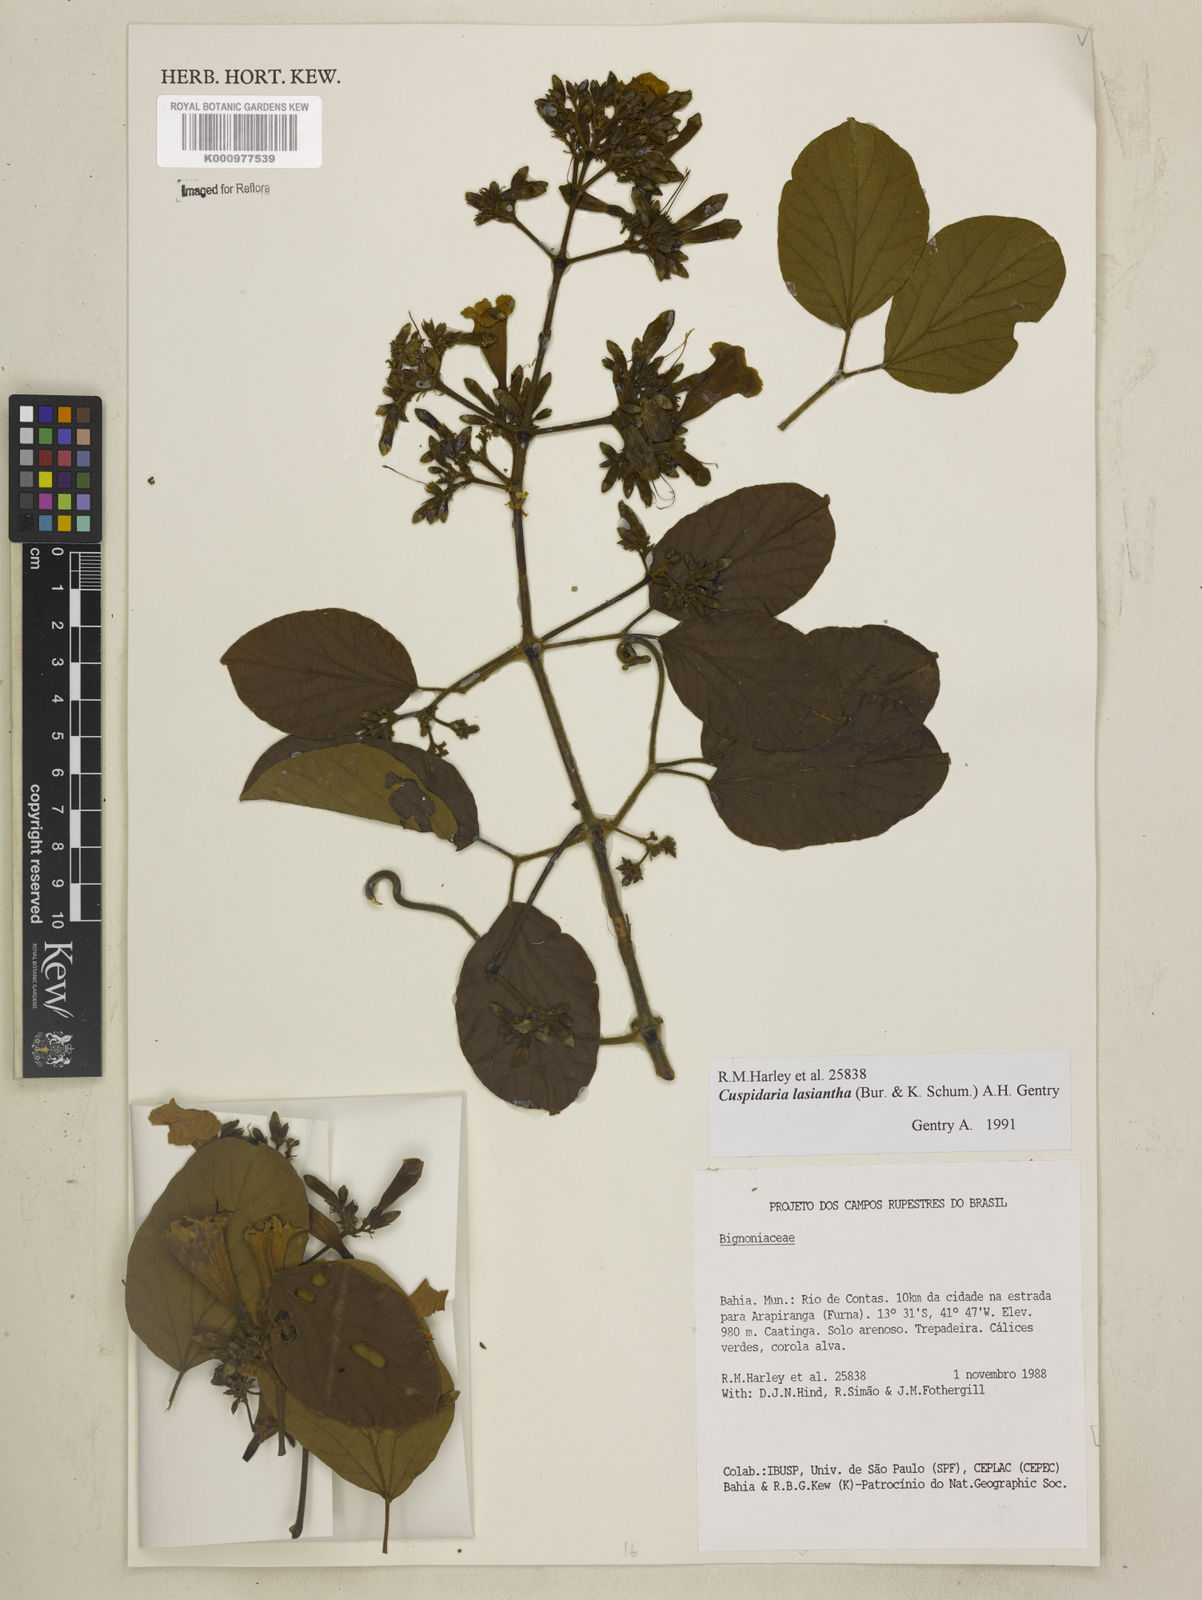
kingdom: Plantae
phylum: Tracheophyta
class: Magnoliopsida
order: Lamiales
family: Bignoniaceae
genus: Cuspidaria
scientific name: Cuspidaria
